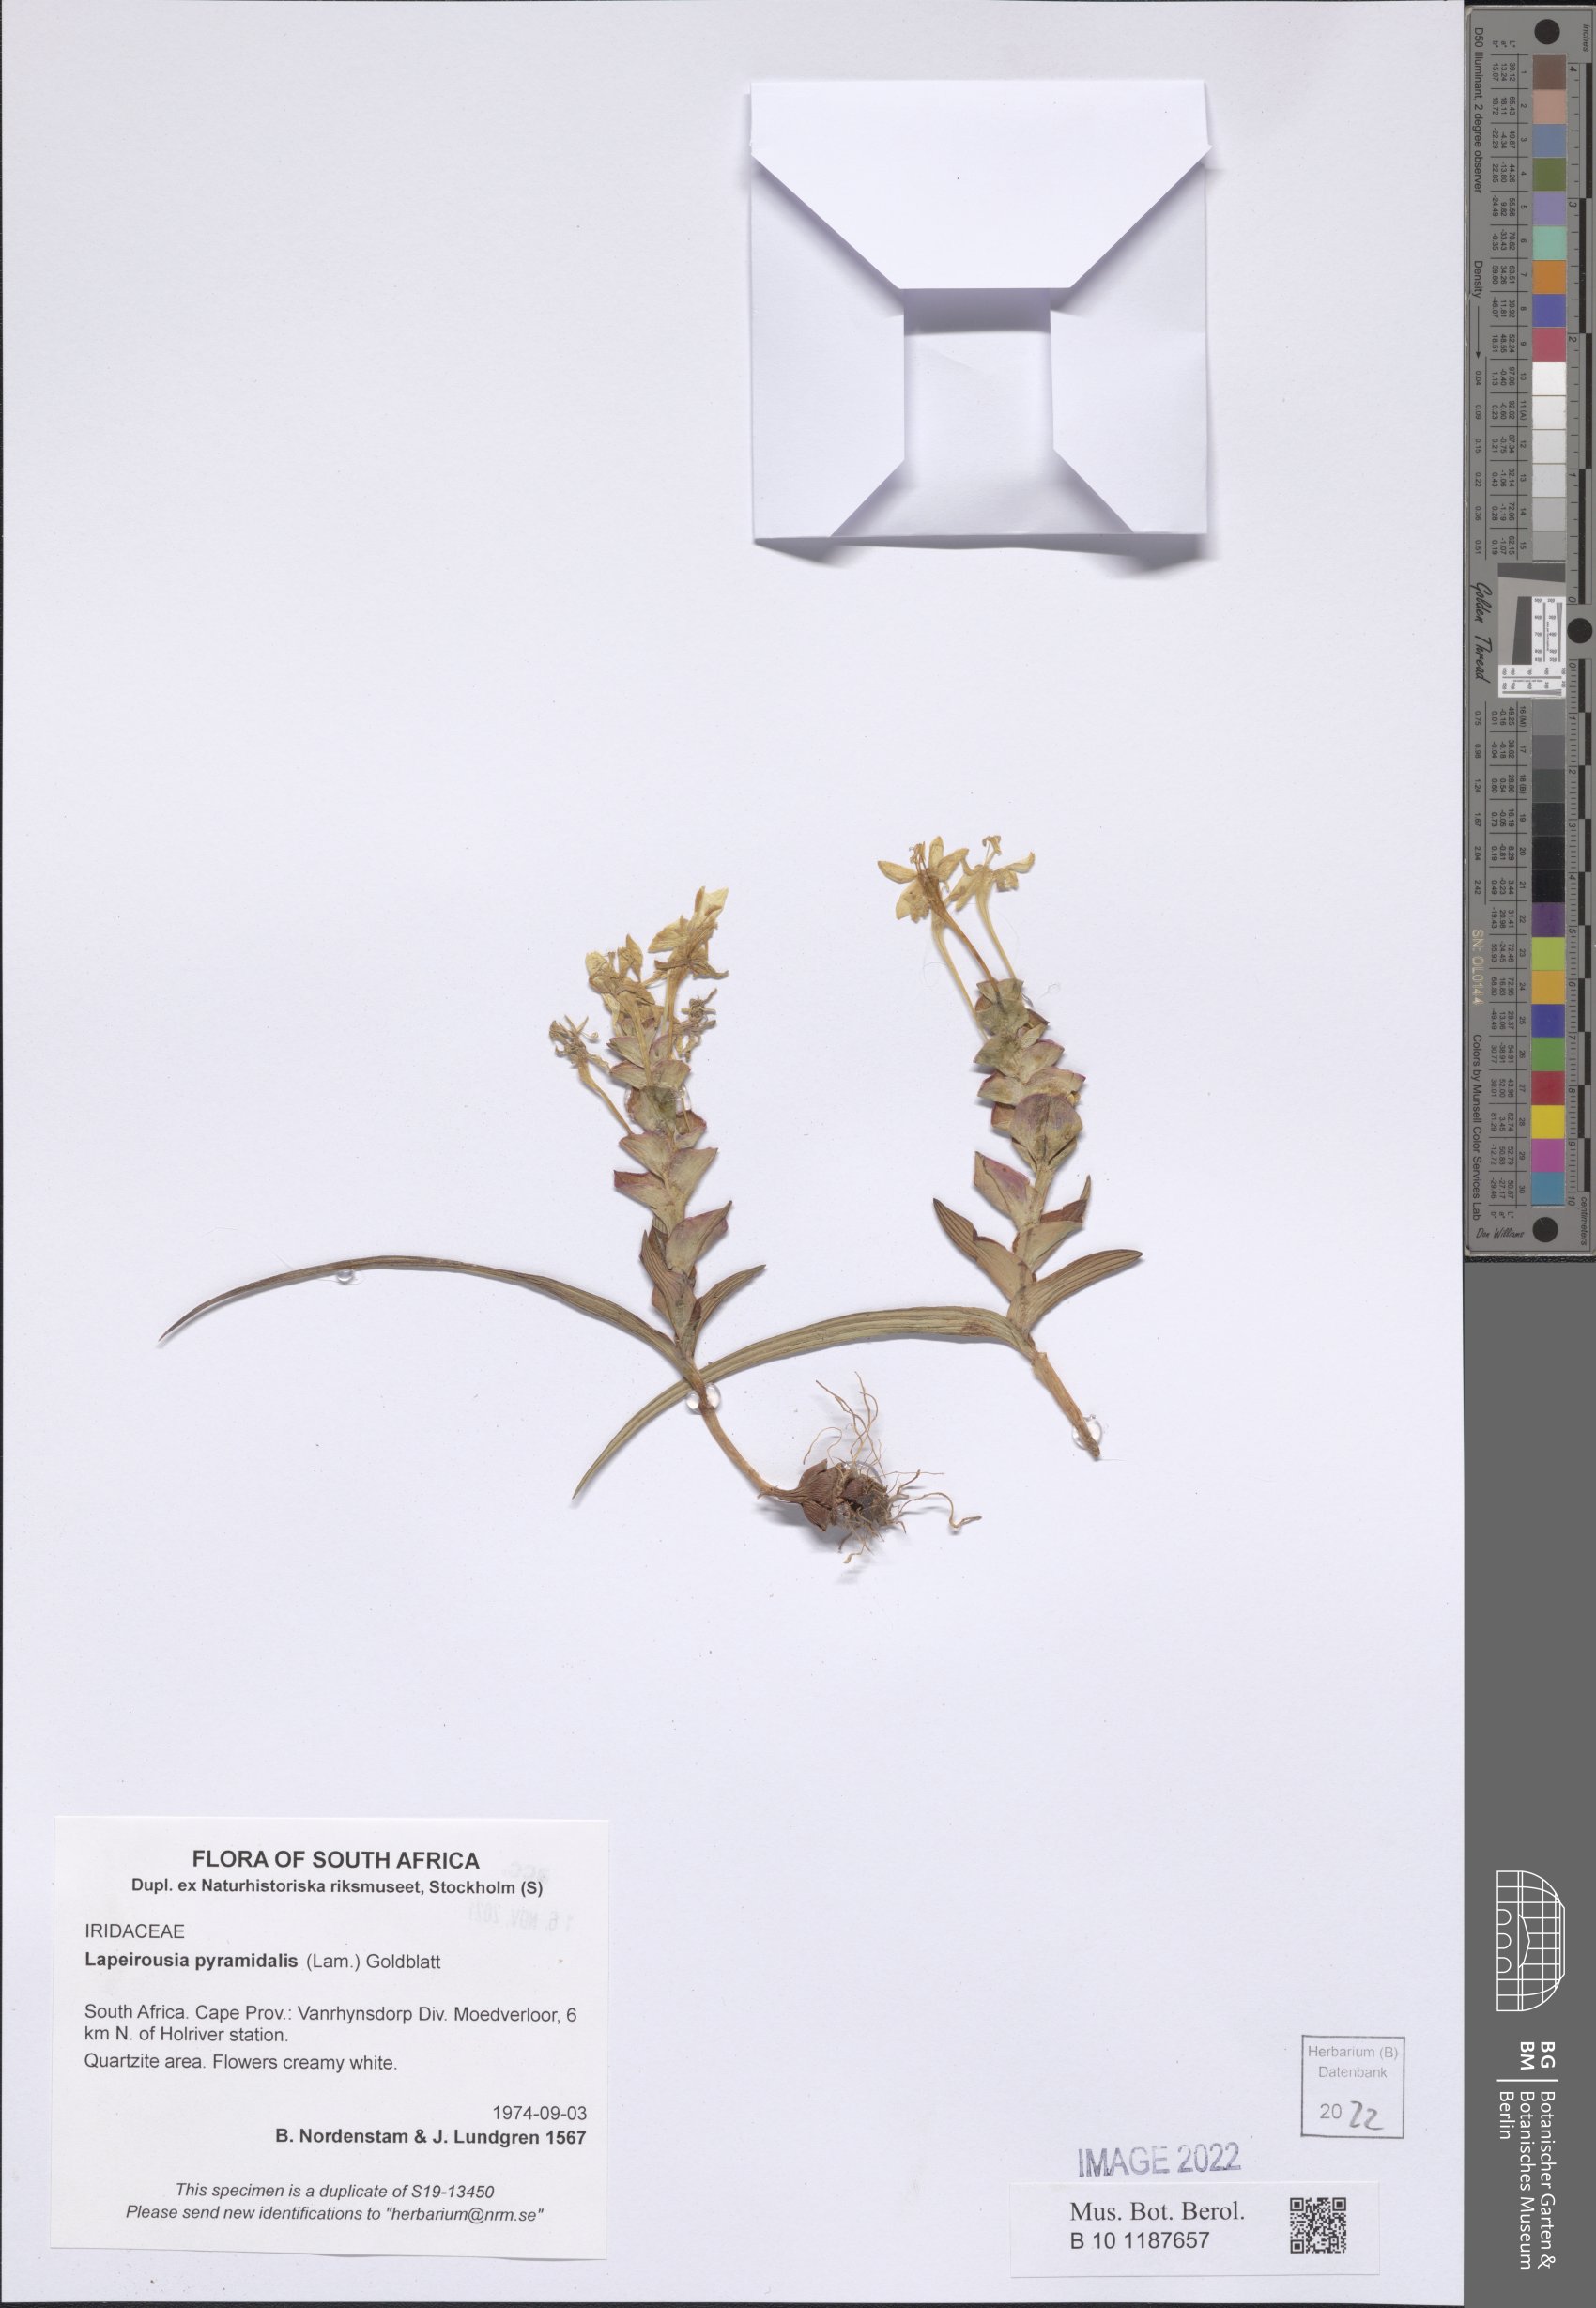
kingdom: Plantae
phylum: Tracheophyta
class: Liliopsida
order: Asparagales
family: Iridaceae
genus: Lapeirousia
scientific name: Lapeirousia pyramidalis
